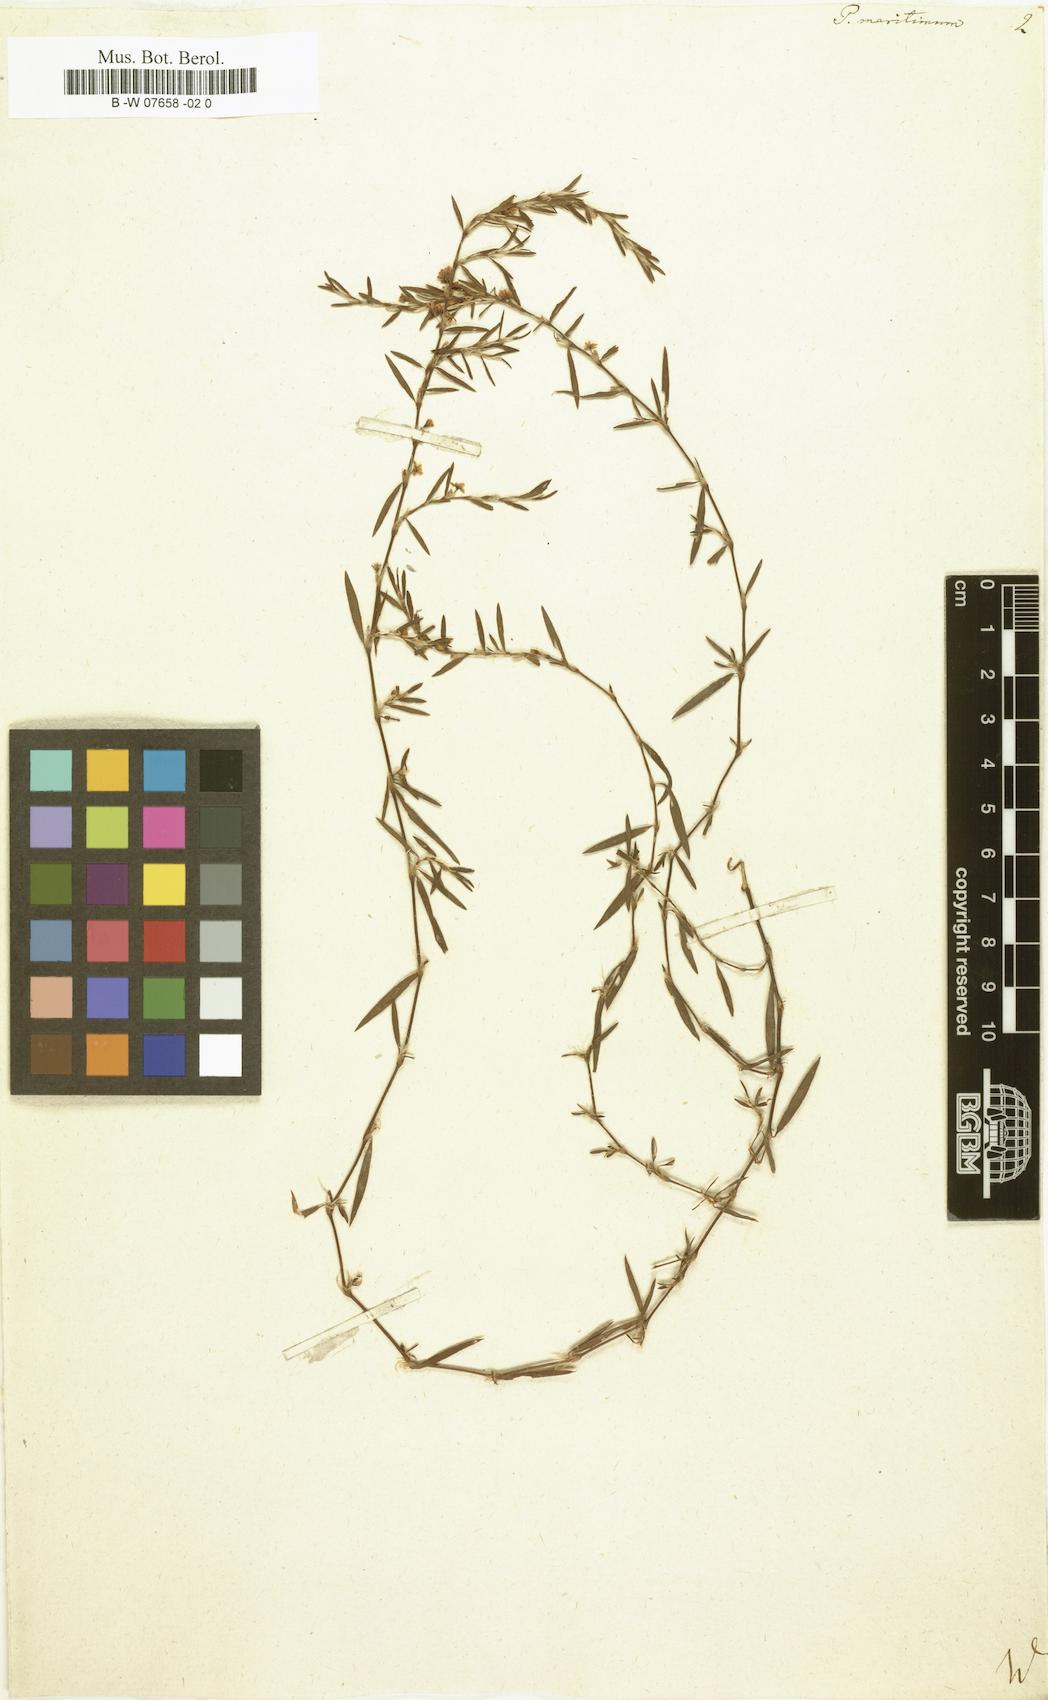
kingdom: Plantae
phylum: Tracheophyta
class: Magnoliopsida
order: Caryophyllales
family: Polygonaceae
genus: Polygonum
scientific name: Polygonum maritimum
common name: Sea knotgrass
